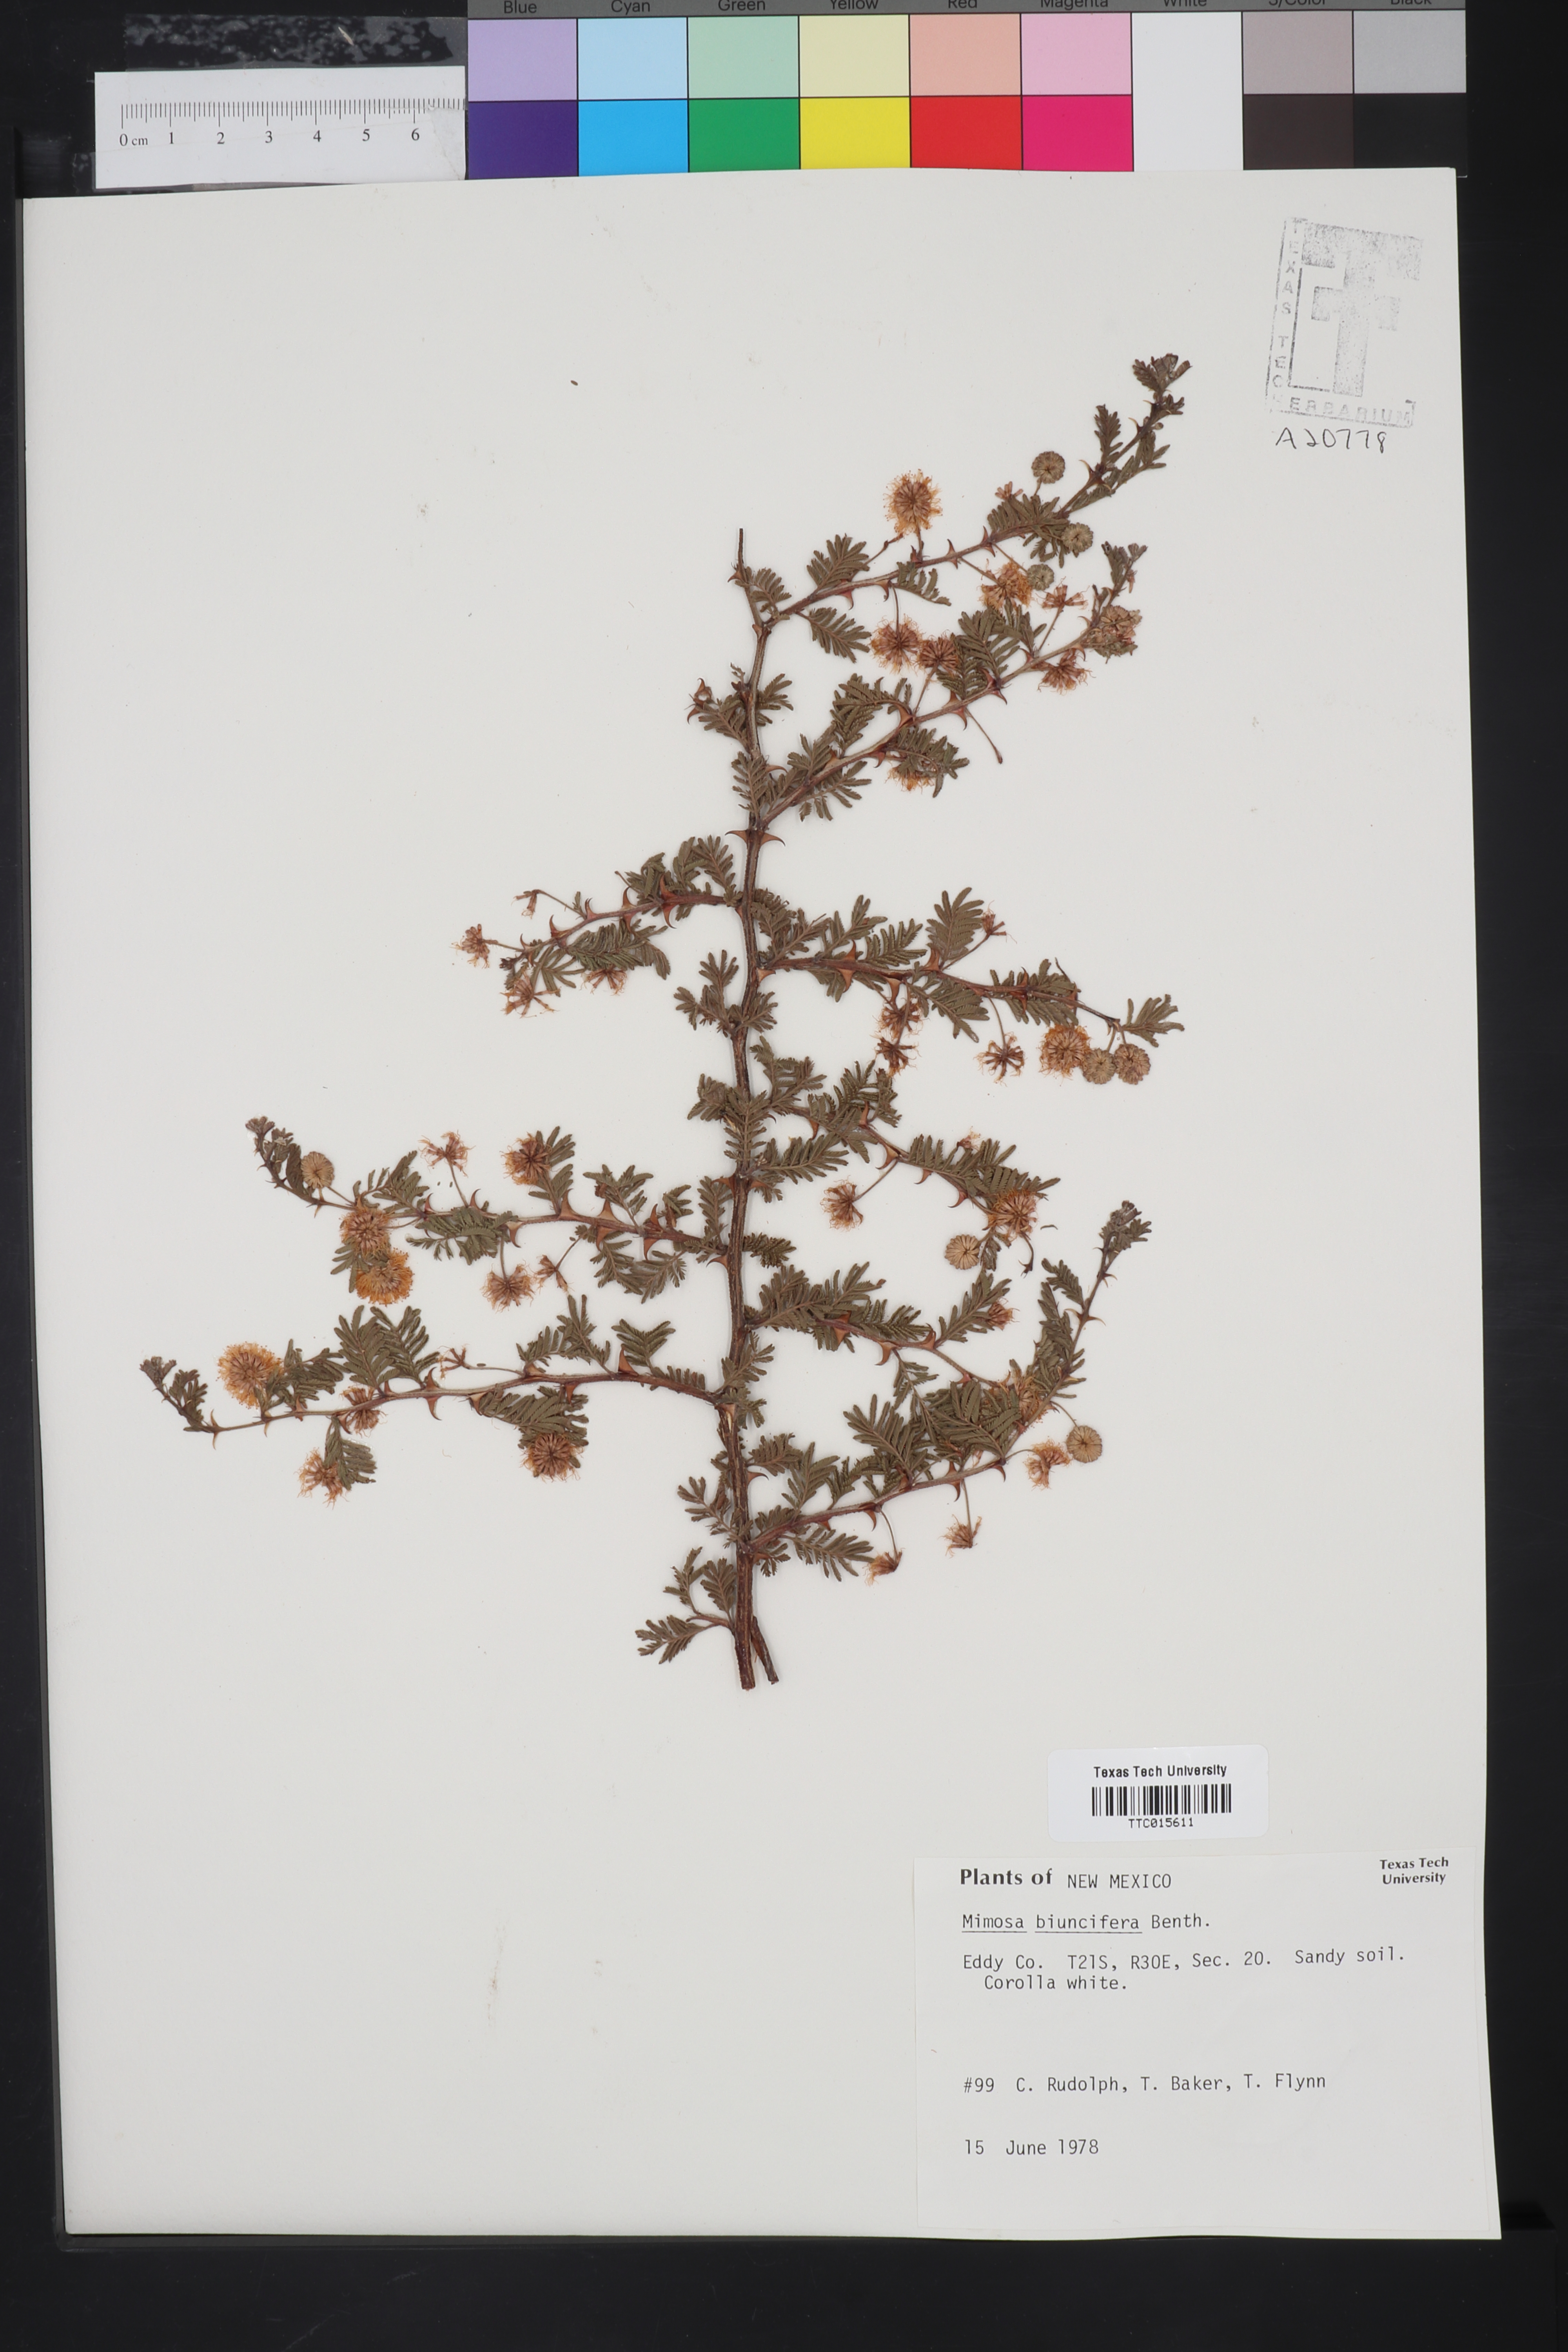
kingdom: Plantae
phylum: Tracheophyta
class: Magnoliopsida
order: Fabales
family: Fabaceae
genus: Mimosa
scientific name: Mimosa biuncifera
